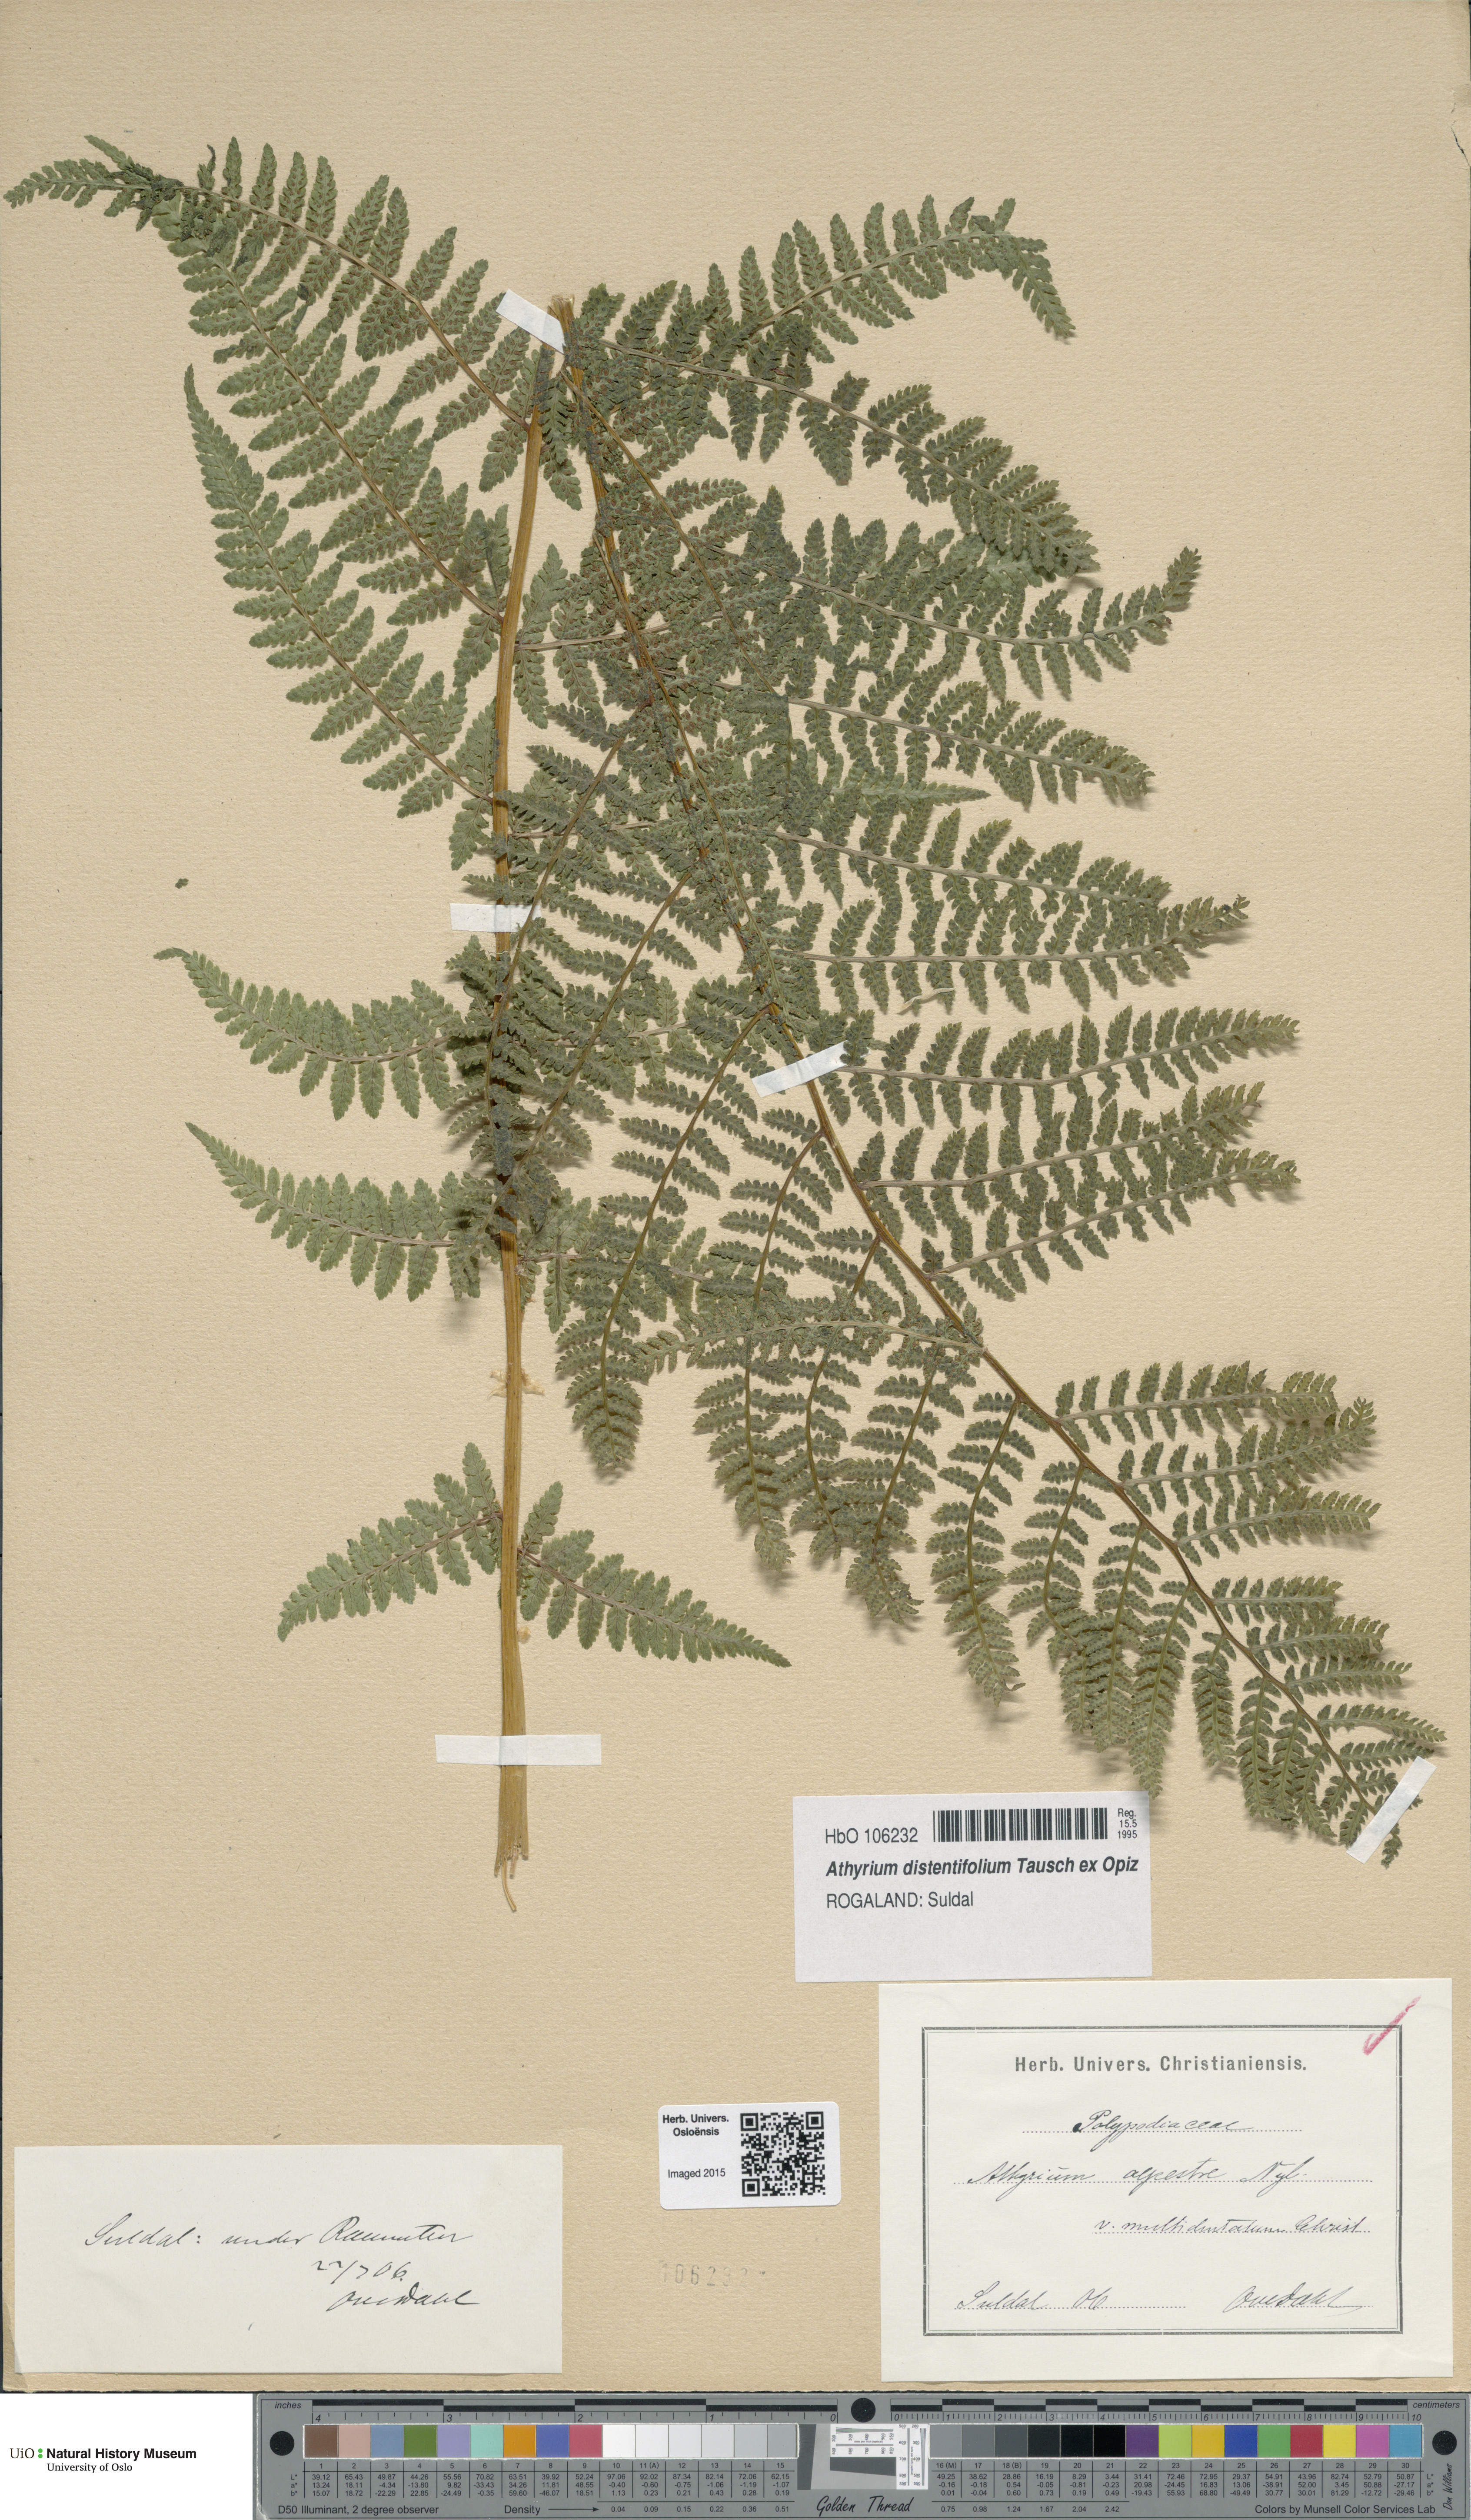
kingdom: Plantae
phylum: Tracheophyta
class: Polypodiopsida
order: Polypodiales
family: Athyriaceae
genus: Pseudathyrium
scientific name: Pseudathyrium alpestre
